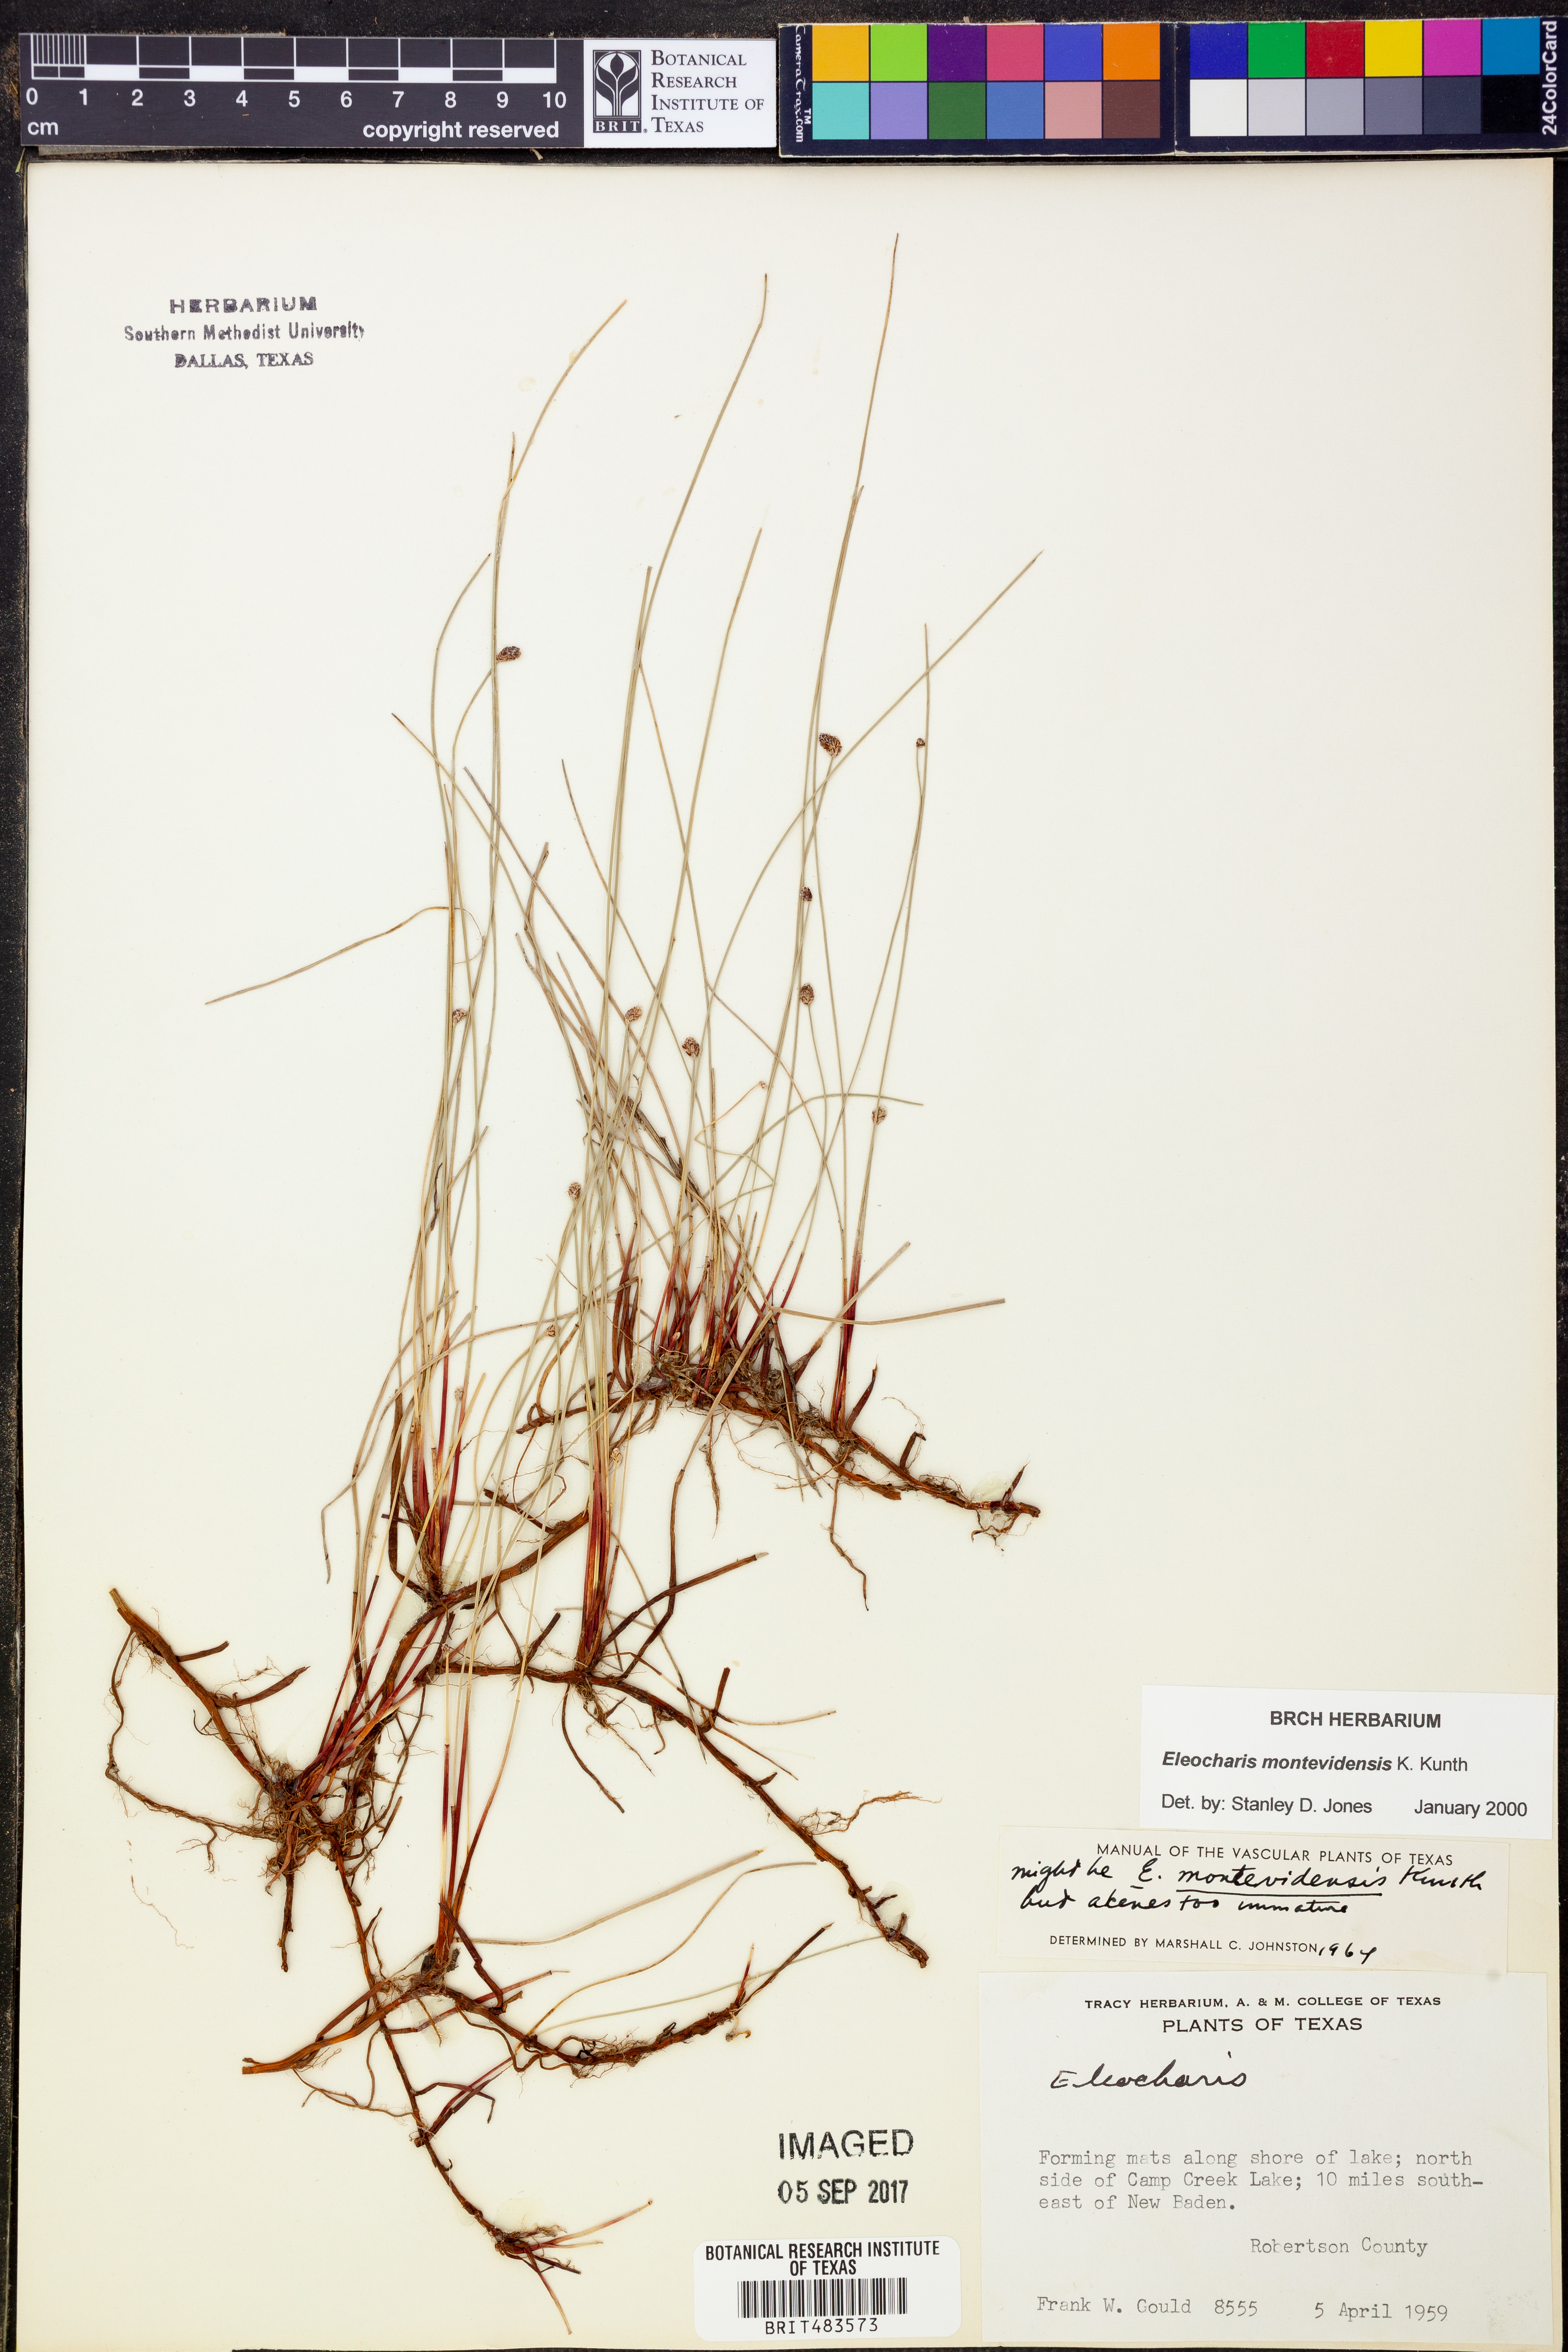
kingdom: Plantae
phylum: Tracheophyta
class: Liliopsida
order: Poales
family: Cyperaceae
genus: Eleocharis
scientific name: Eleocharis montevidensis
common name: Sand spike-rush
